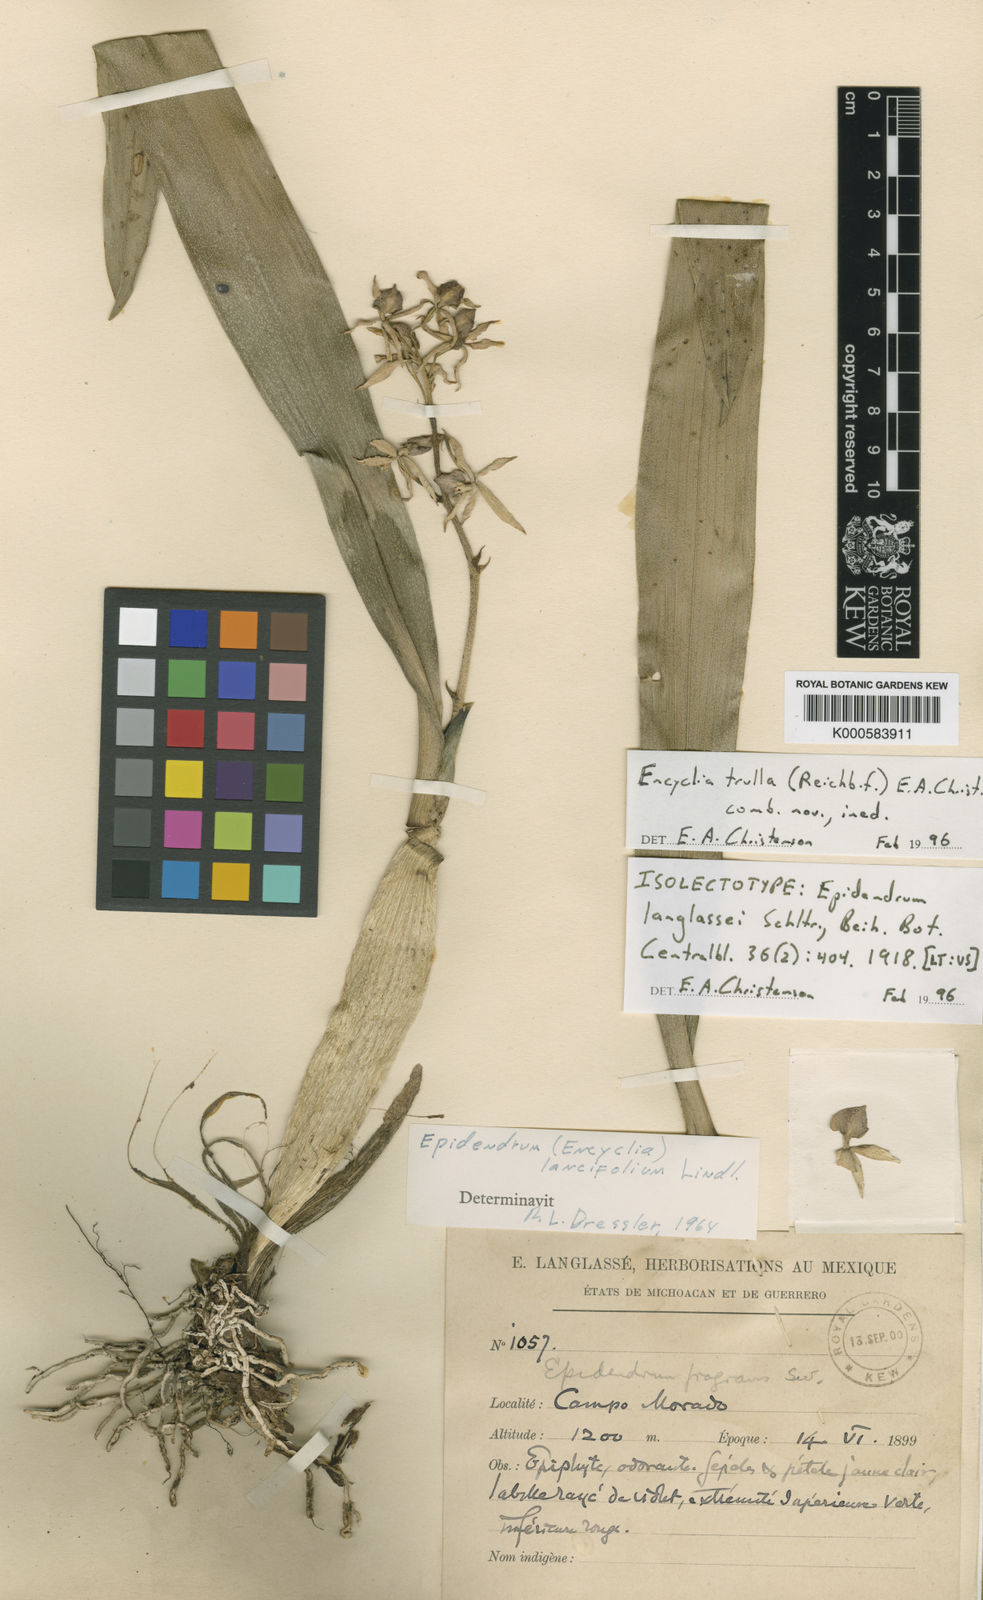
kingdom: Plantae
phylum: Tracheophyta
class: Liliopsida
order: Asparagales
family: Orchidaceae
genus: Prosthechea
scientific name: Prosthechea trulla
